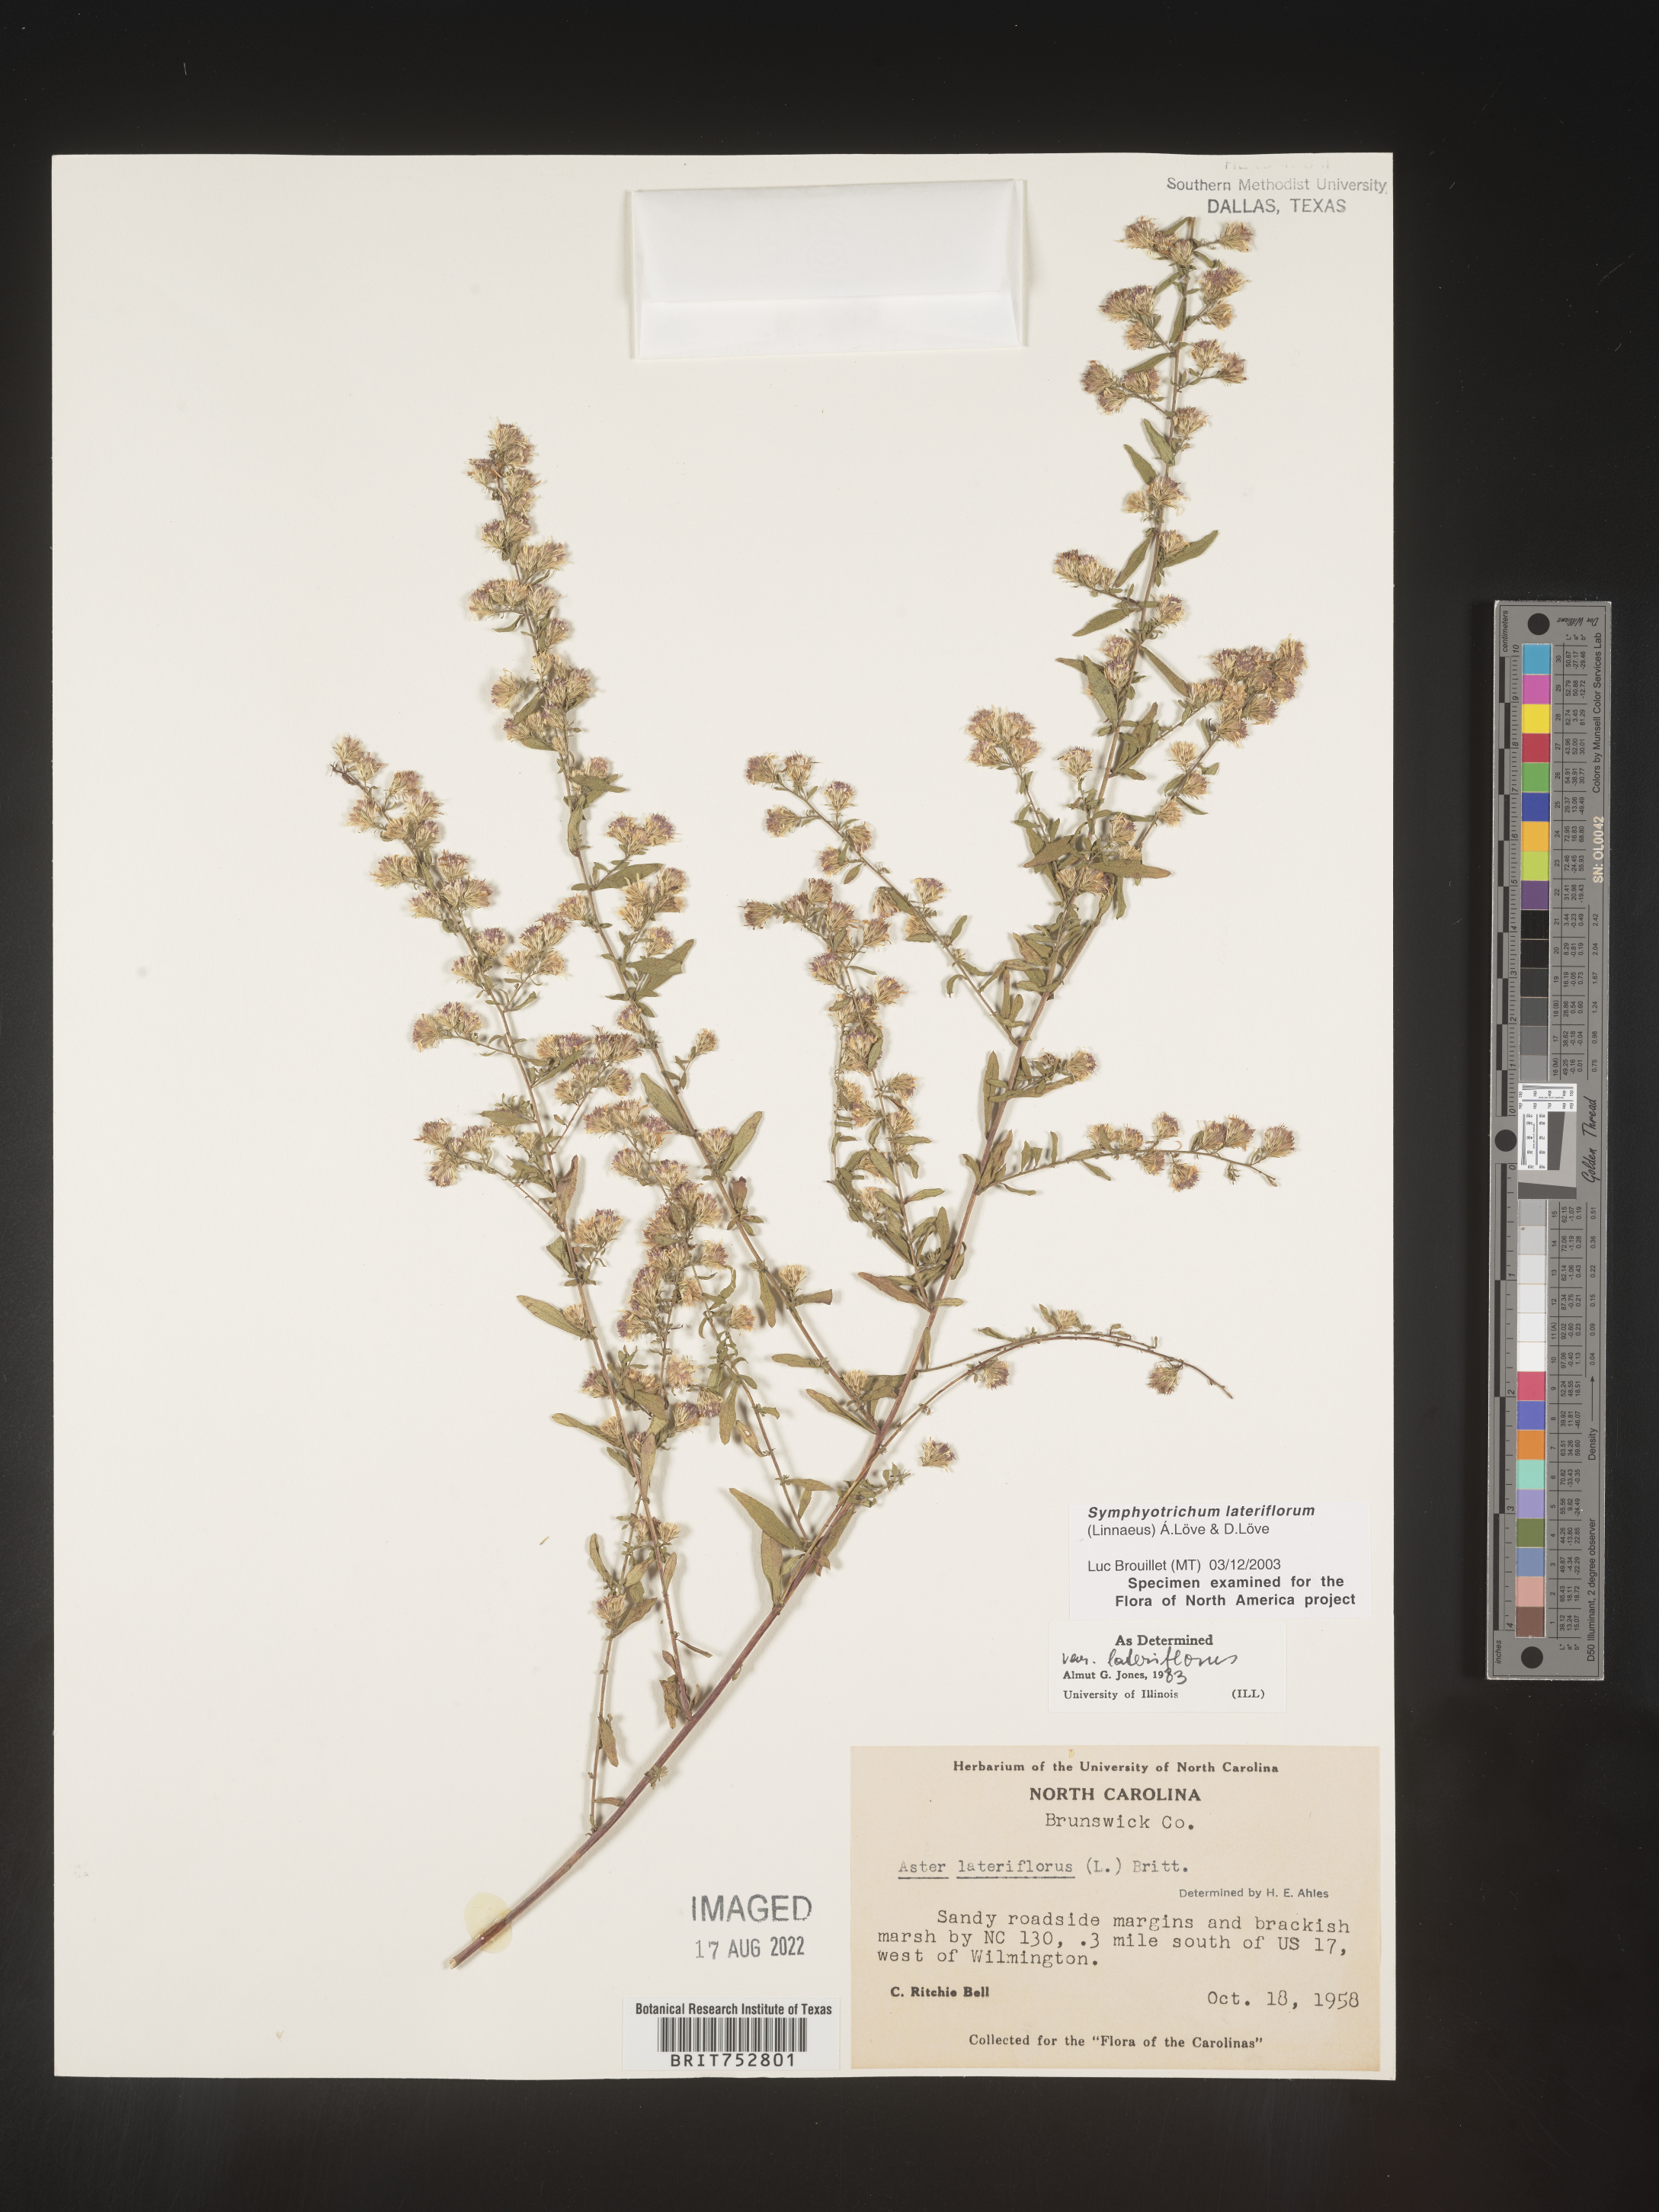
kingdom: Plantae
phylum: Tracheophyta
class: Magnoliopsida
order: Asterales
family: Asteraceae
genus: Symphyotrichum
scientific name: Symphyotrichum lateriflorum
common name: Calico aster
